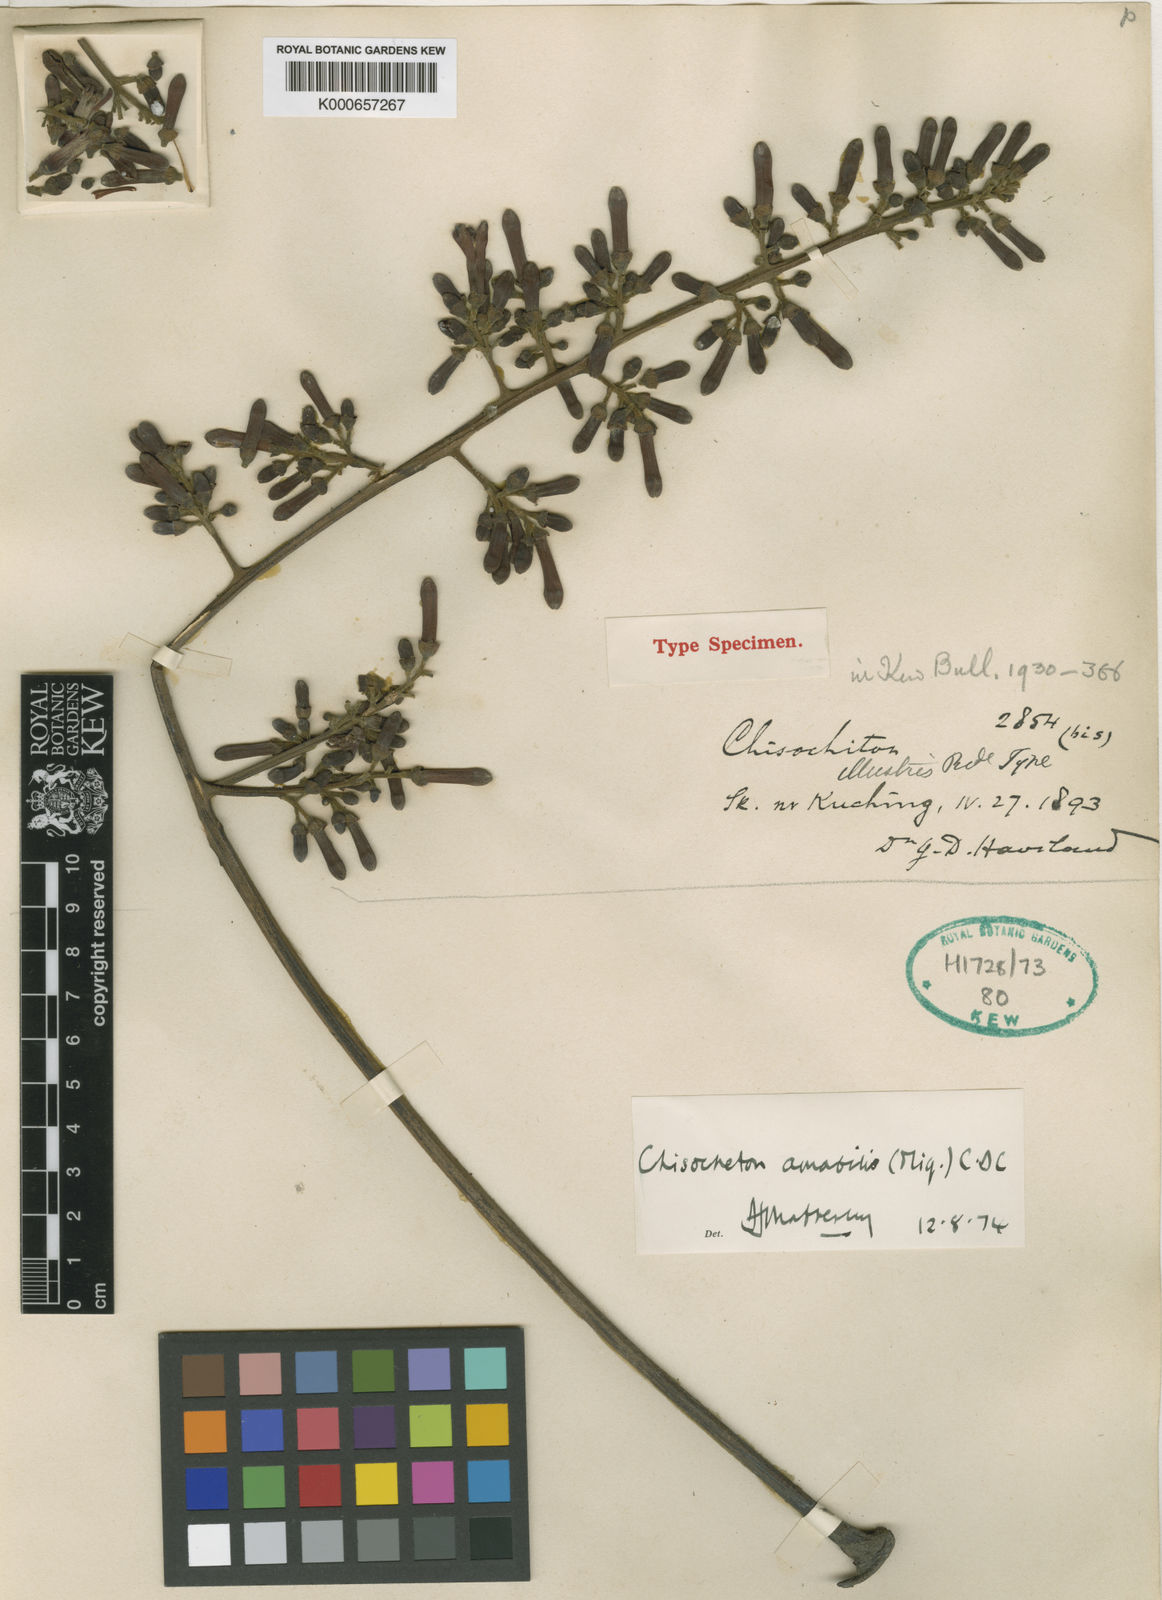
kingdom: Plantae
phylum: Tracheophyta
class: Magnoliopsida
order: Sapindales
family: Meliaceae
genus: Chisocheton
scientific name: Chisocheton amabilis
